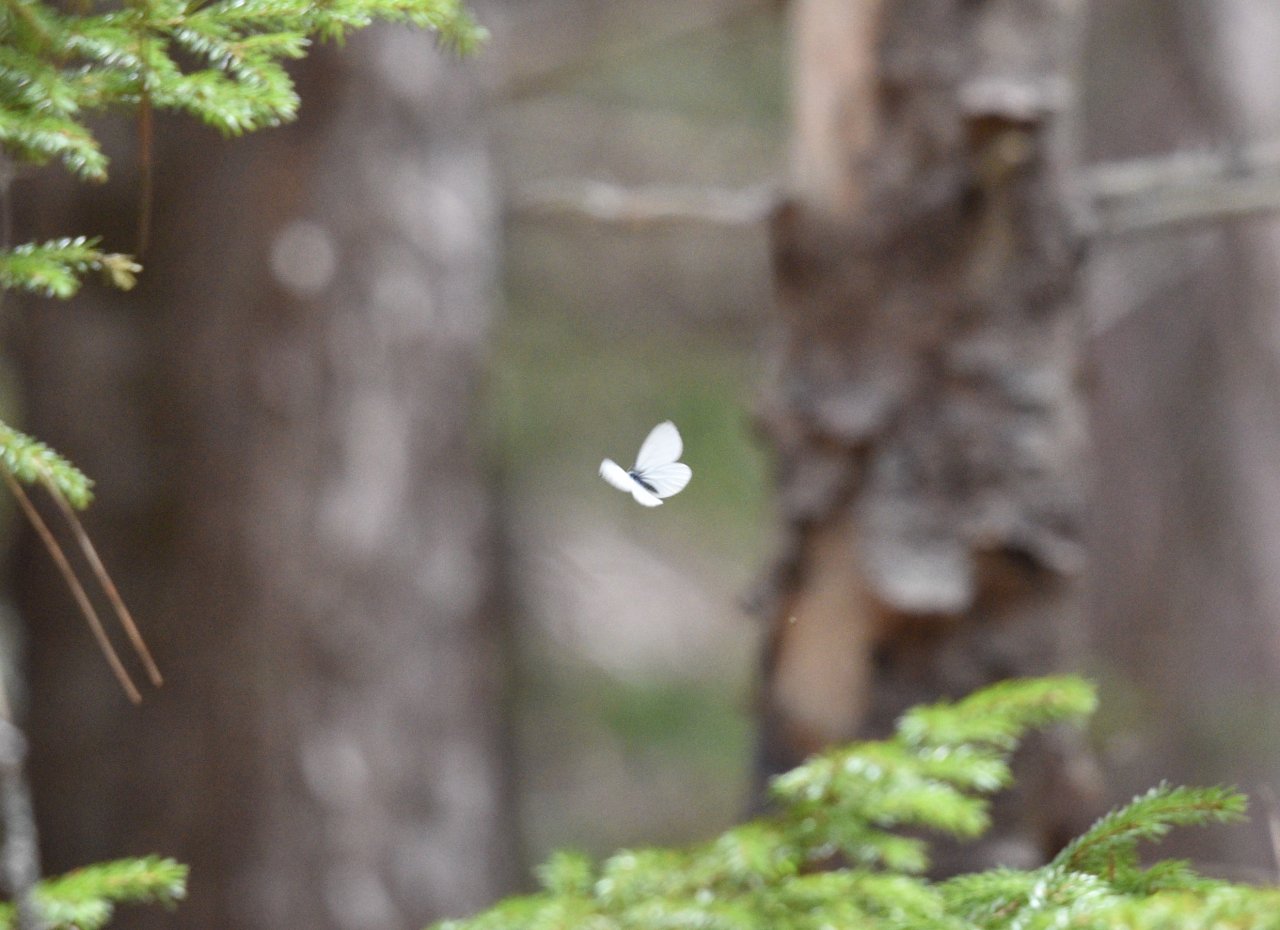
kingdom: Animalia
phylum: Arthropoda
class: Insecta
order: Lepidoptera
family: Pieridae
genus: Pieris
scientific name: Pieris oleracea
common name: Mustard White
